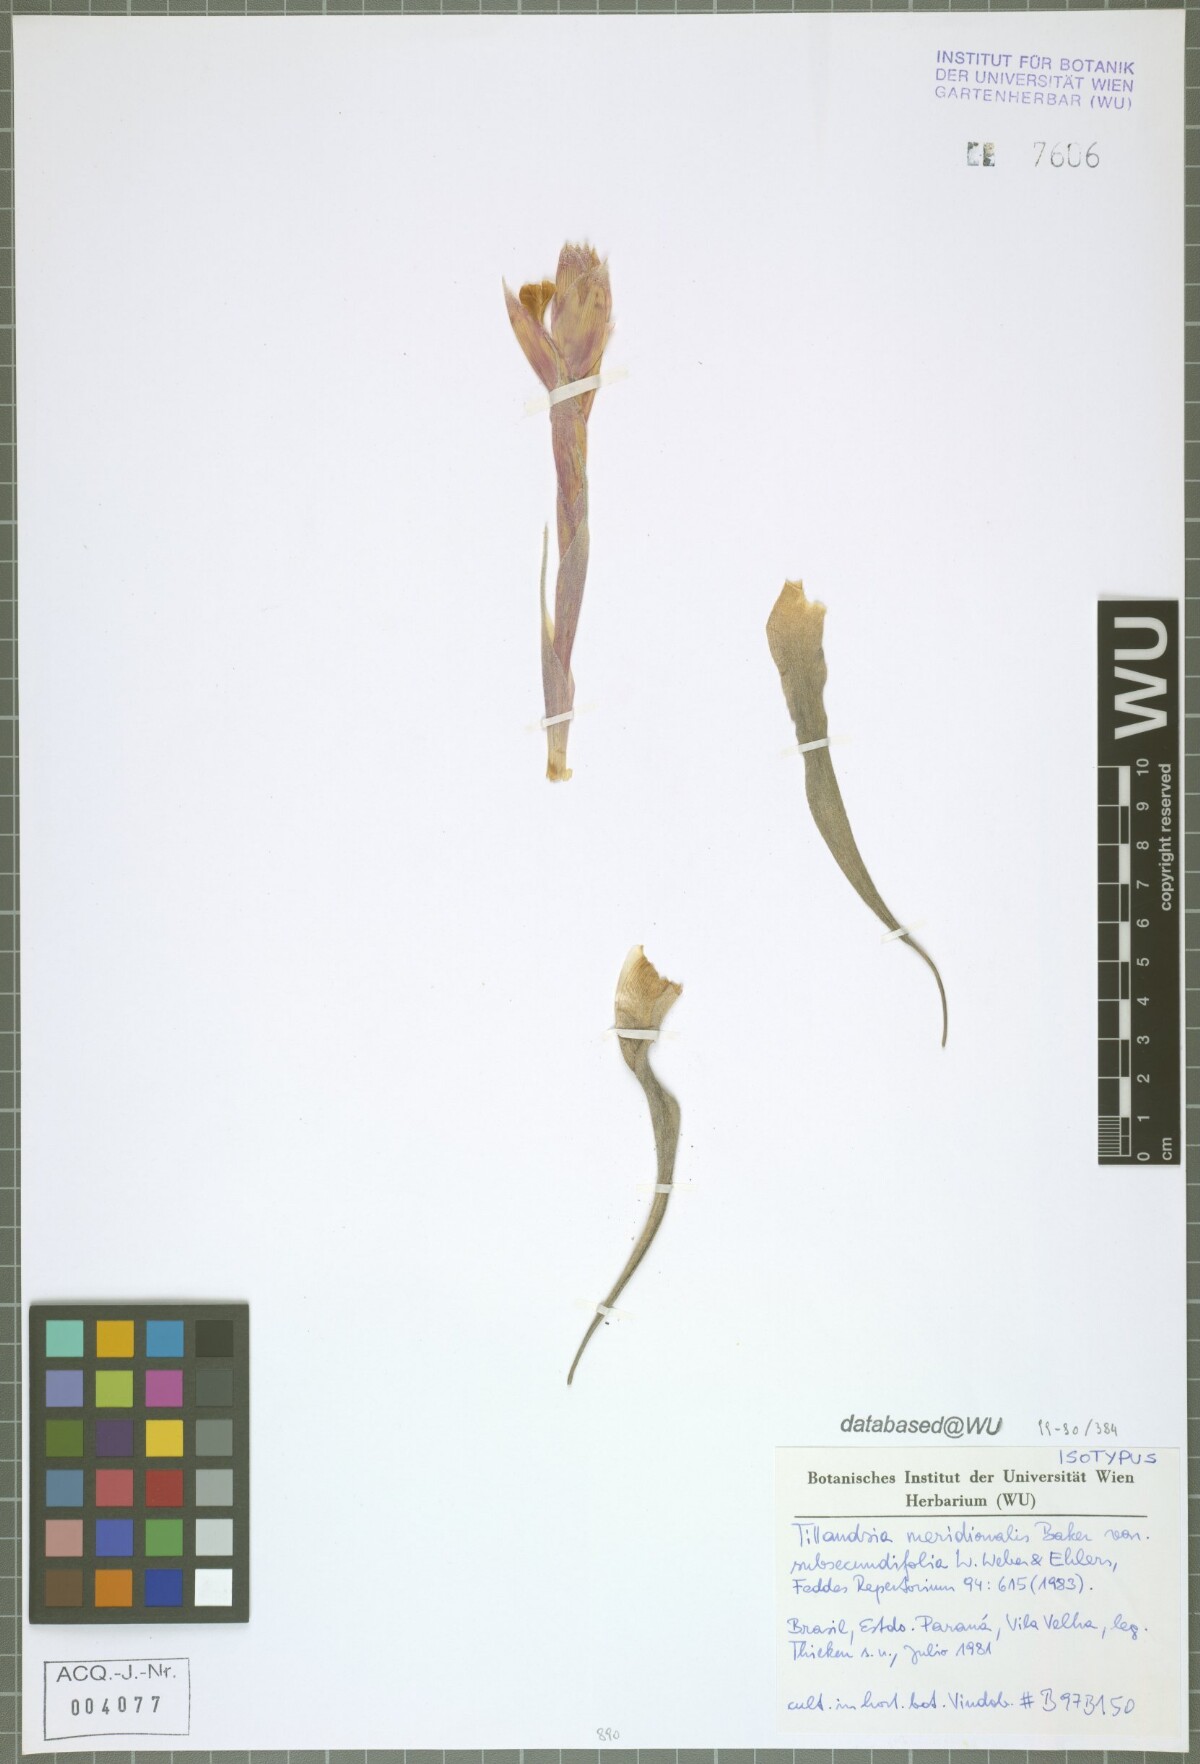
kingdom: Plantae
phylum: Tracheophyta
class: Liliopsida
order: Poales
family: Bromeliaceae
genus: Tillandsia
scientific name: Tillandsia leonamiana
